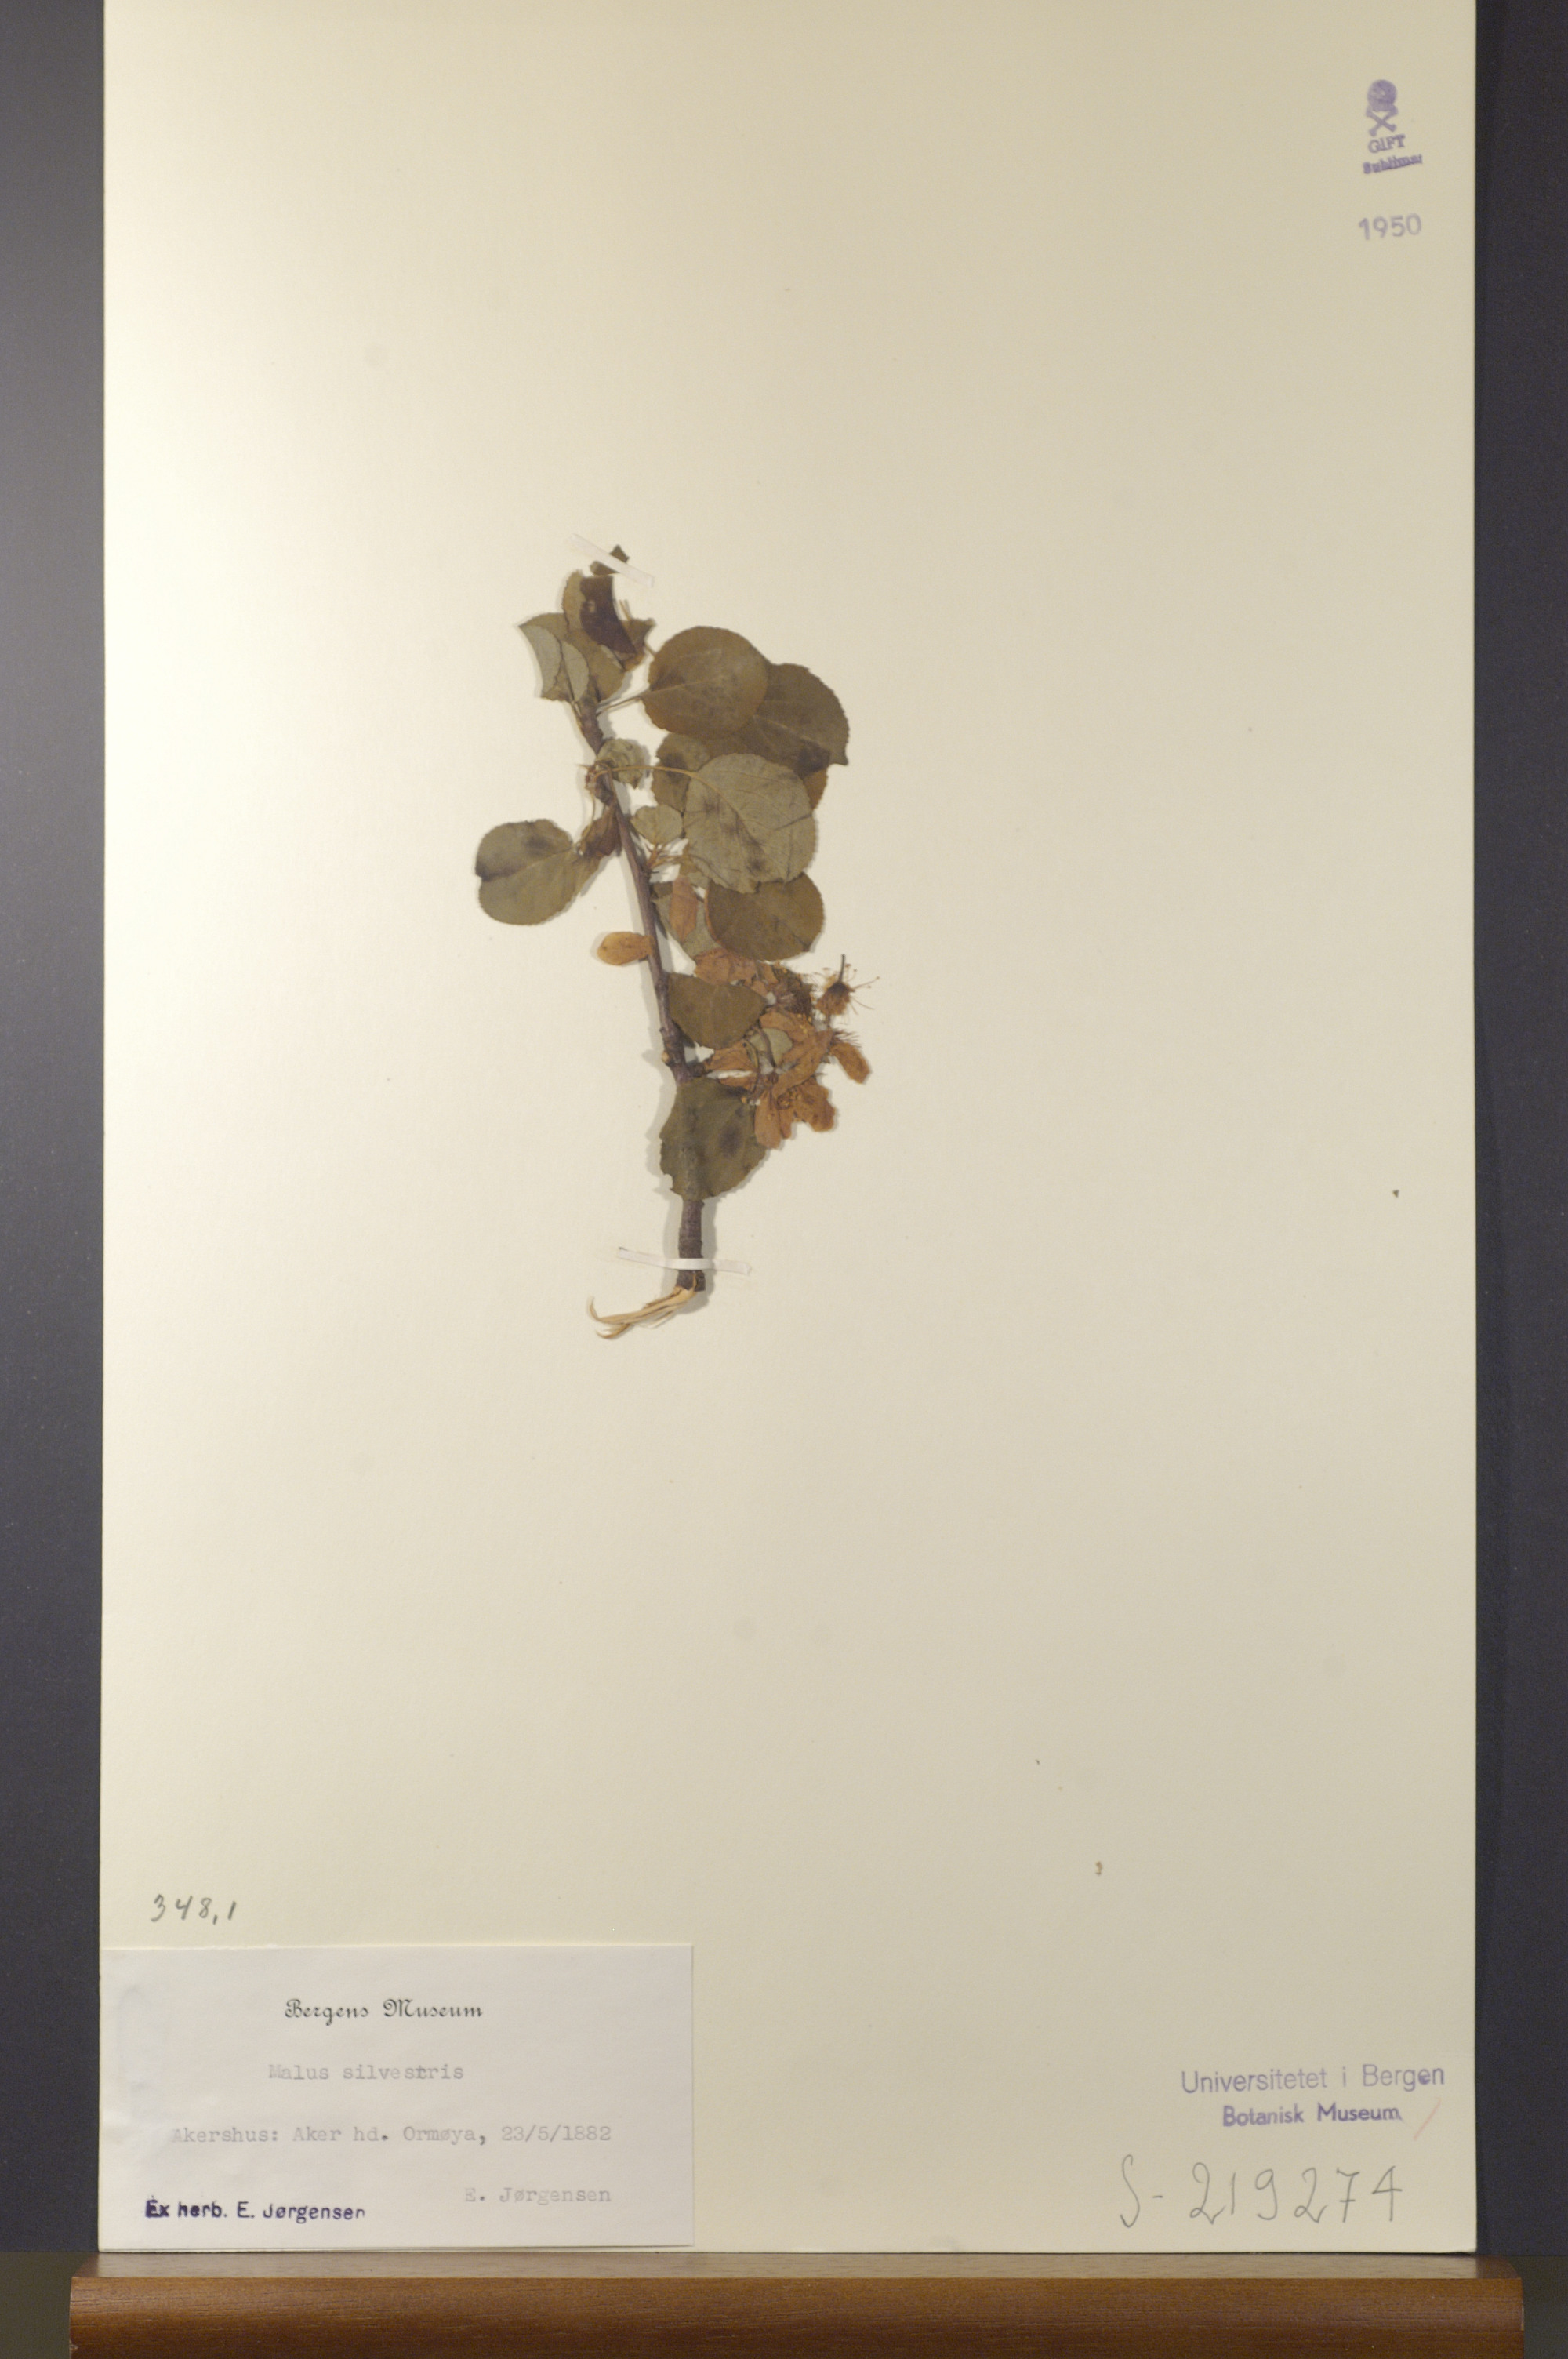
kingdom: Plantae
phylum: Tracheophyta
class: Magnoliopsida
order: Rosales
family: Rosaceae
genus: Malus
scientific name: Malus sylvestris
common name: Crab apple
